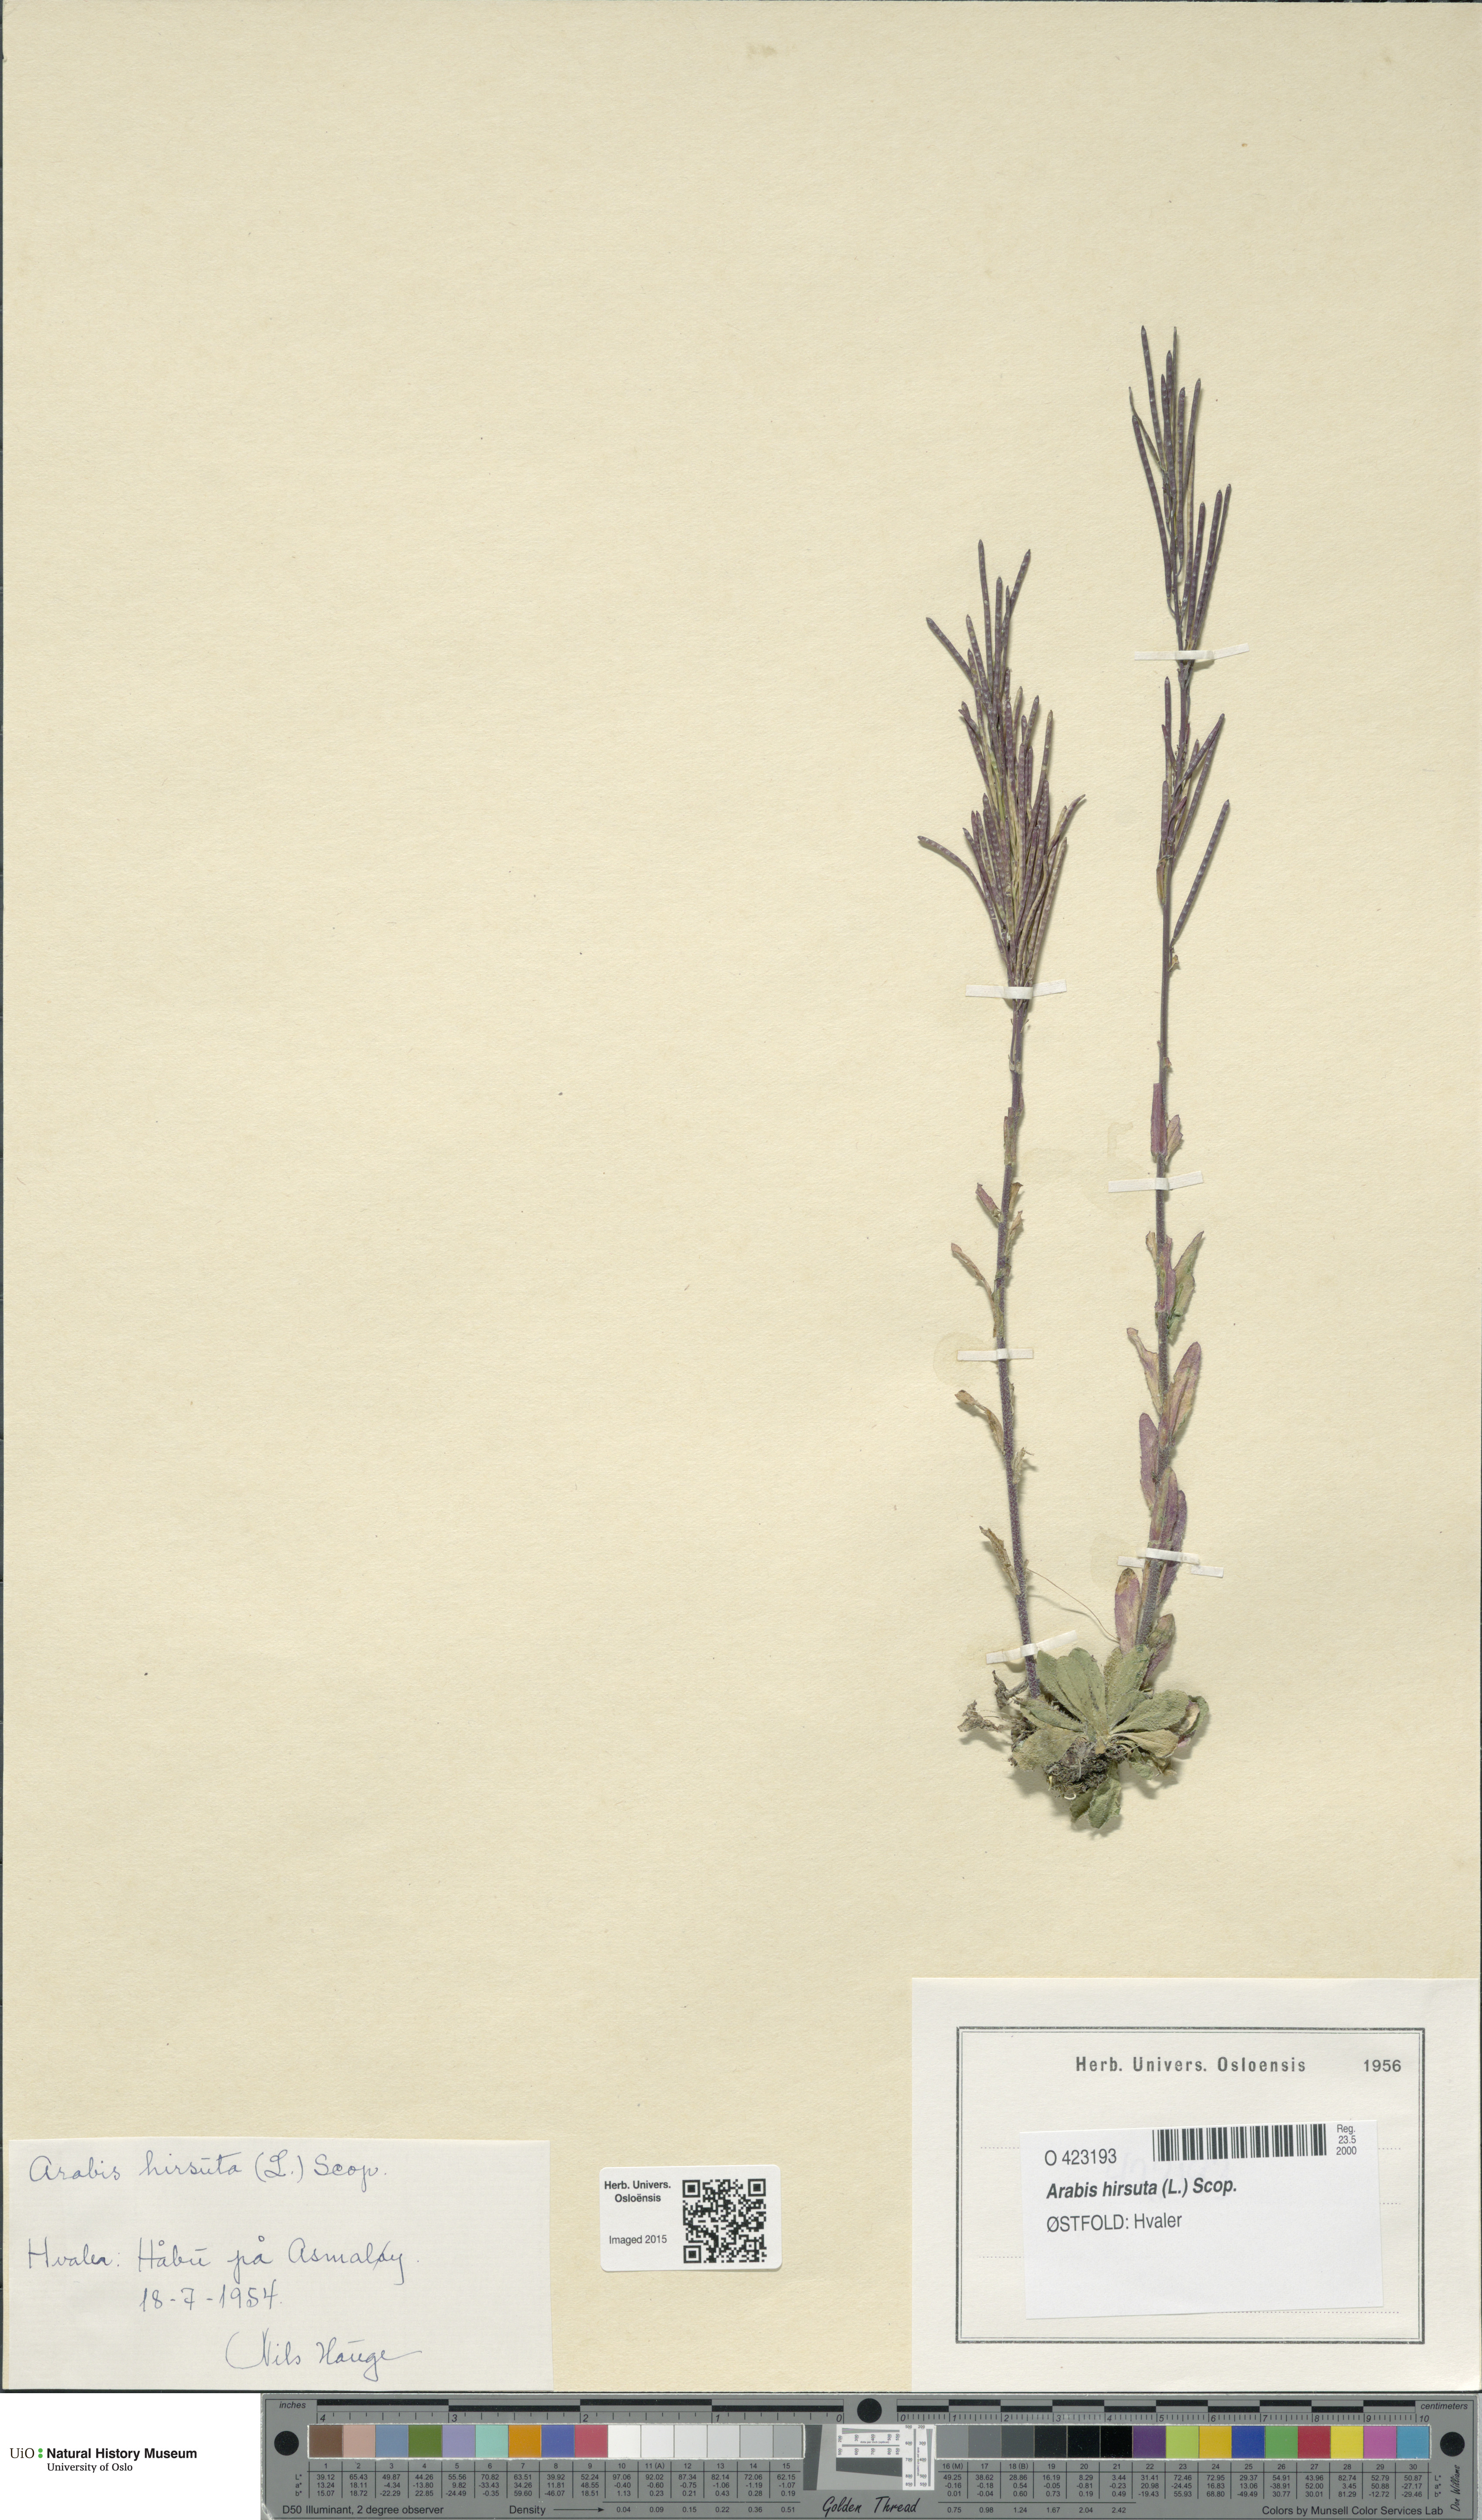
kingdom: Plantae
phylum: Tracheophyta
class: Magnoliopsida
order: Brassicales
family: Brassicaceae
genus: Arabis
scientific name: Arabis hirsuta
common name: Hairy rock-cress
